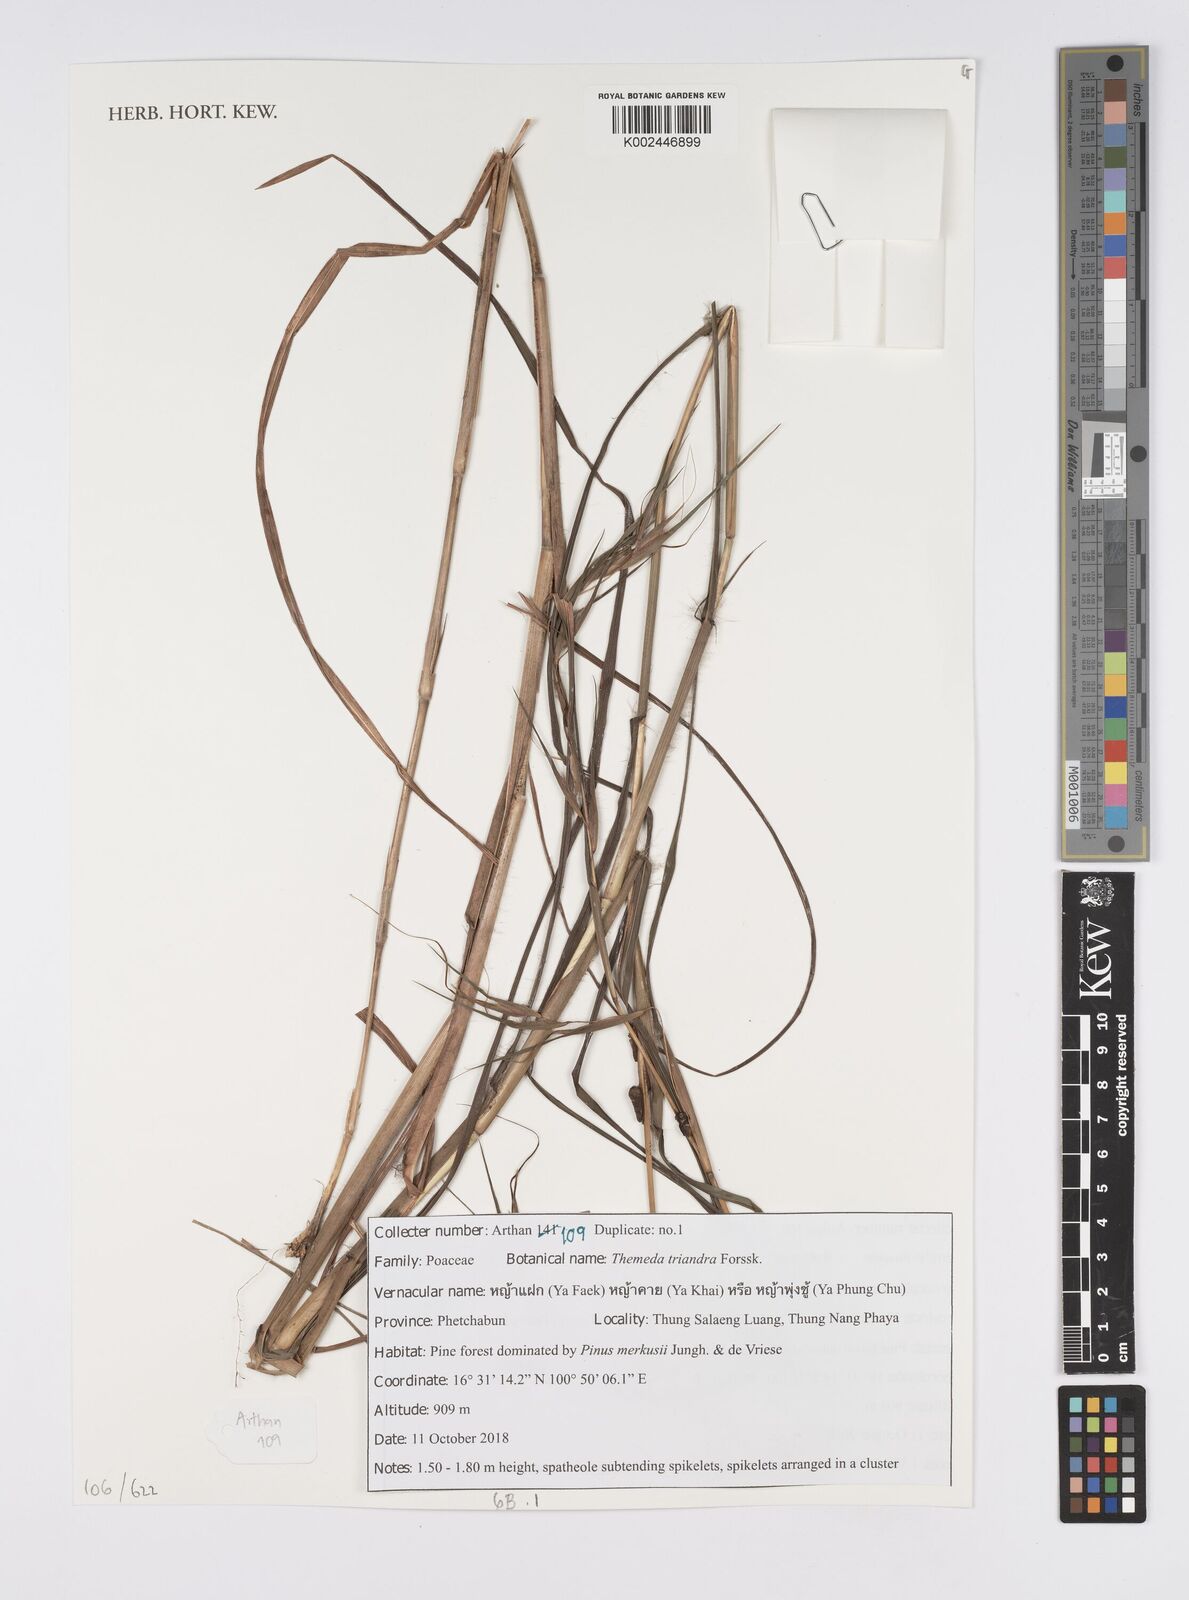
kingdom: Plantae
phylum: Tracheophyta
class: Liliopsida
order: Poales
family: Poaceae
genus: Themeda
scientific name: Themeda triandra
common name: Kangaroo grass
